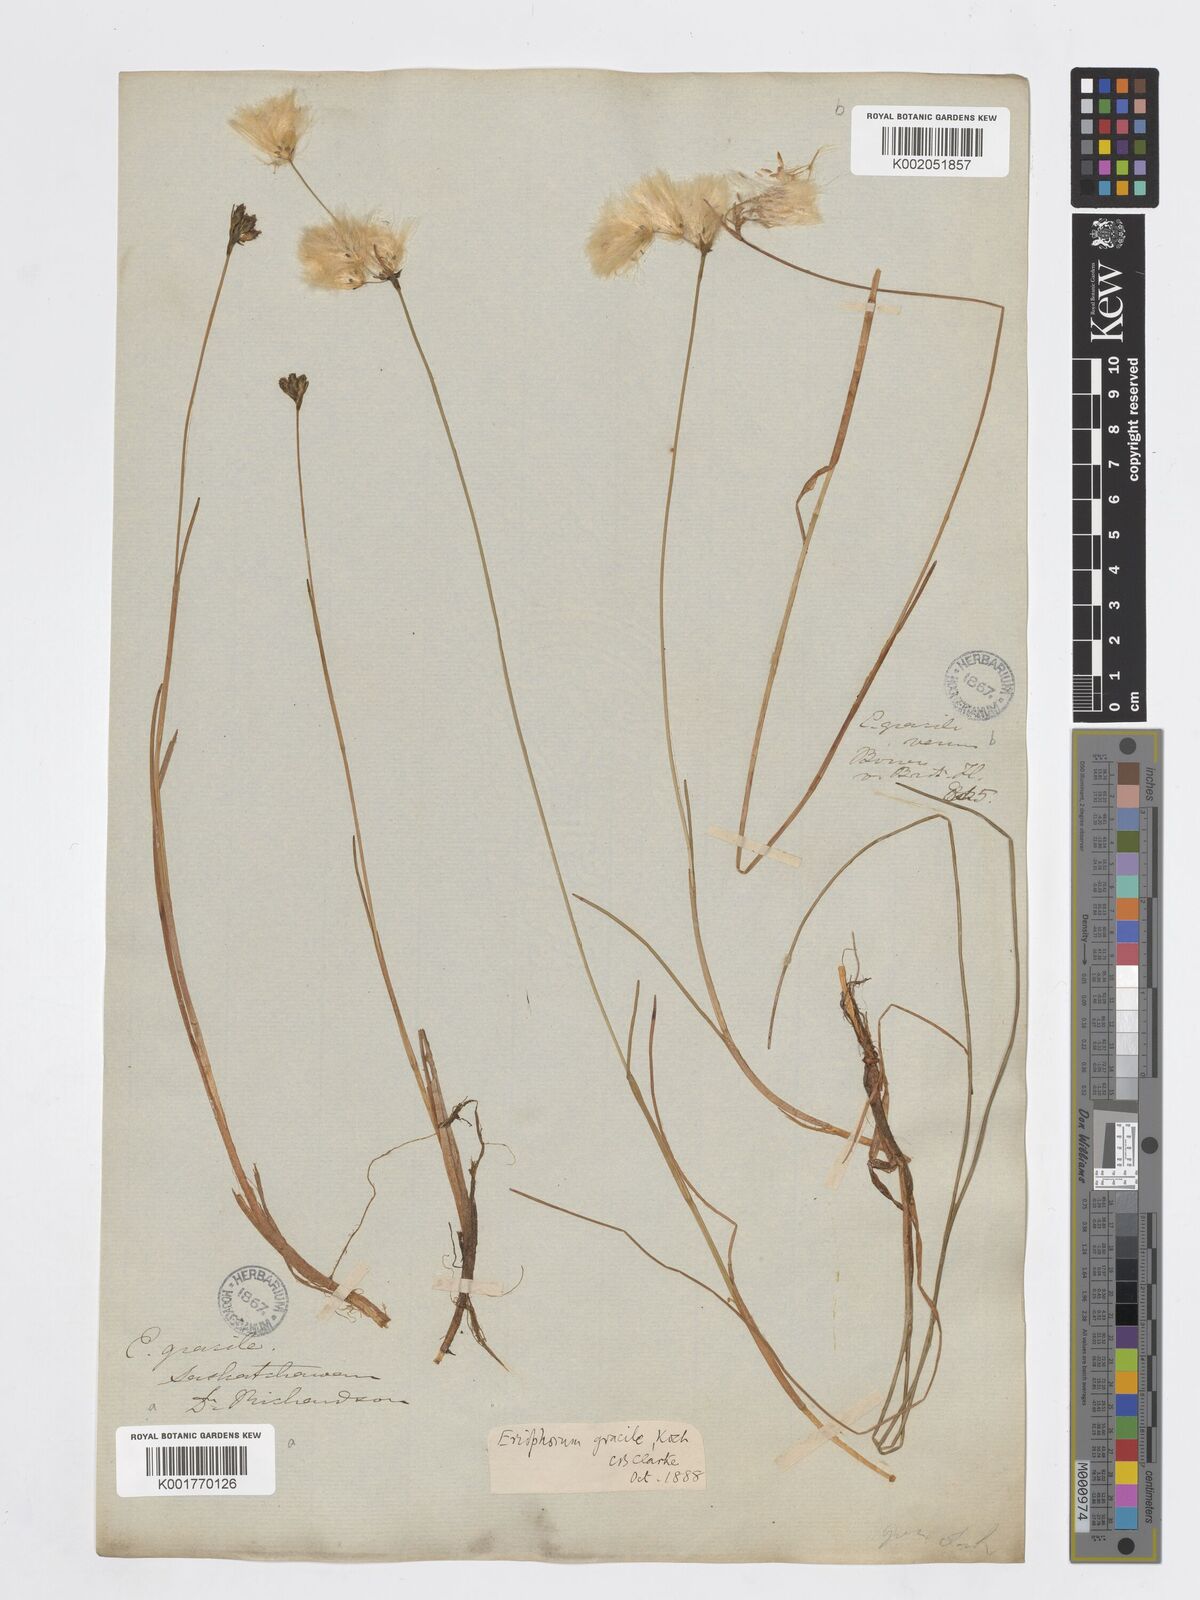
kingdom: Plantae
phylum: Tracheophyta
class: Liliopsida
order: Poales
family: Cyperaceae
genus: Eriophorum
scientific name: Eriophorum gracile
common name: Slender cottongrass
